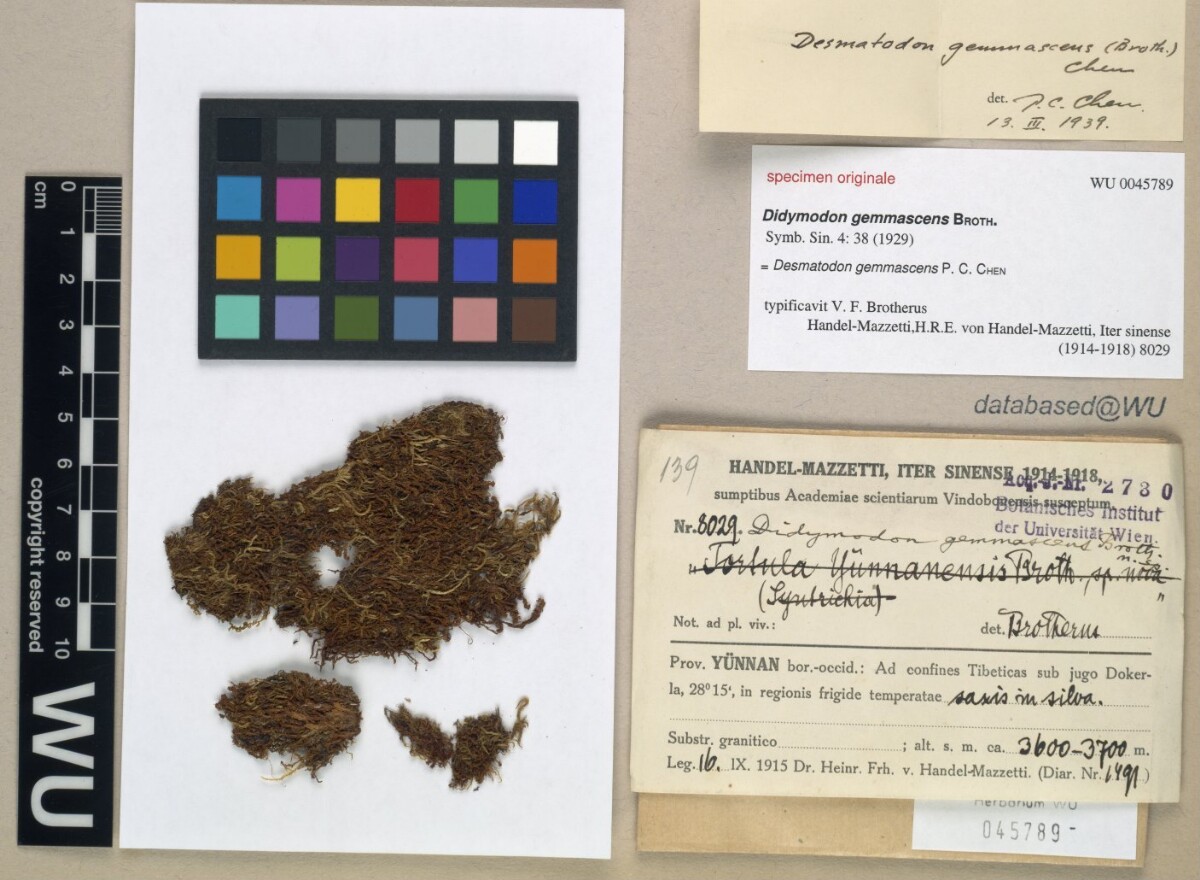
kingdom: Plantae
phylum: Bryophyta
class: Bryopsida
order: Pottiales
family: Pottiaceae
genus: Streptopogon
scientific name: Streptopogon gemmascens
